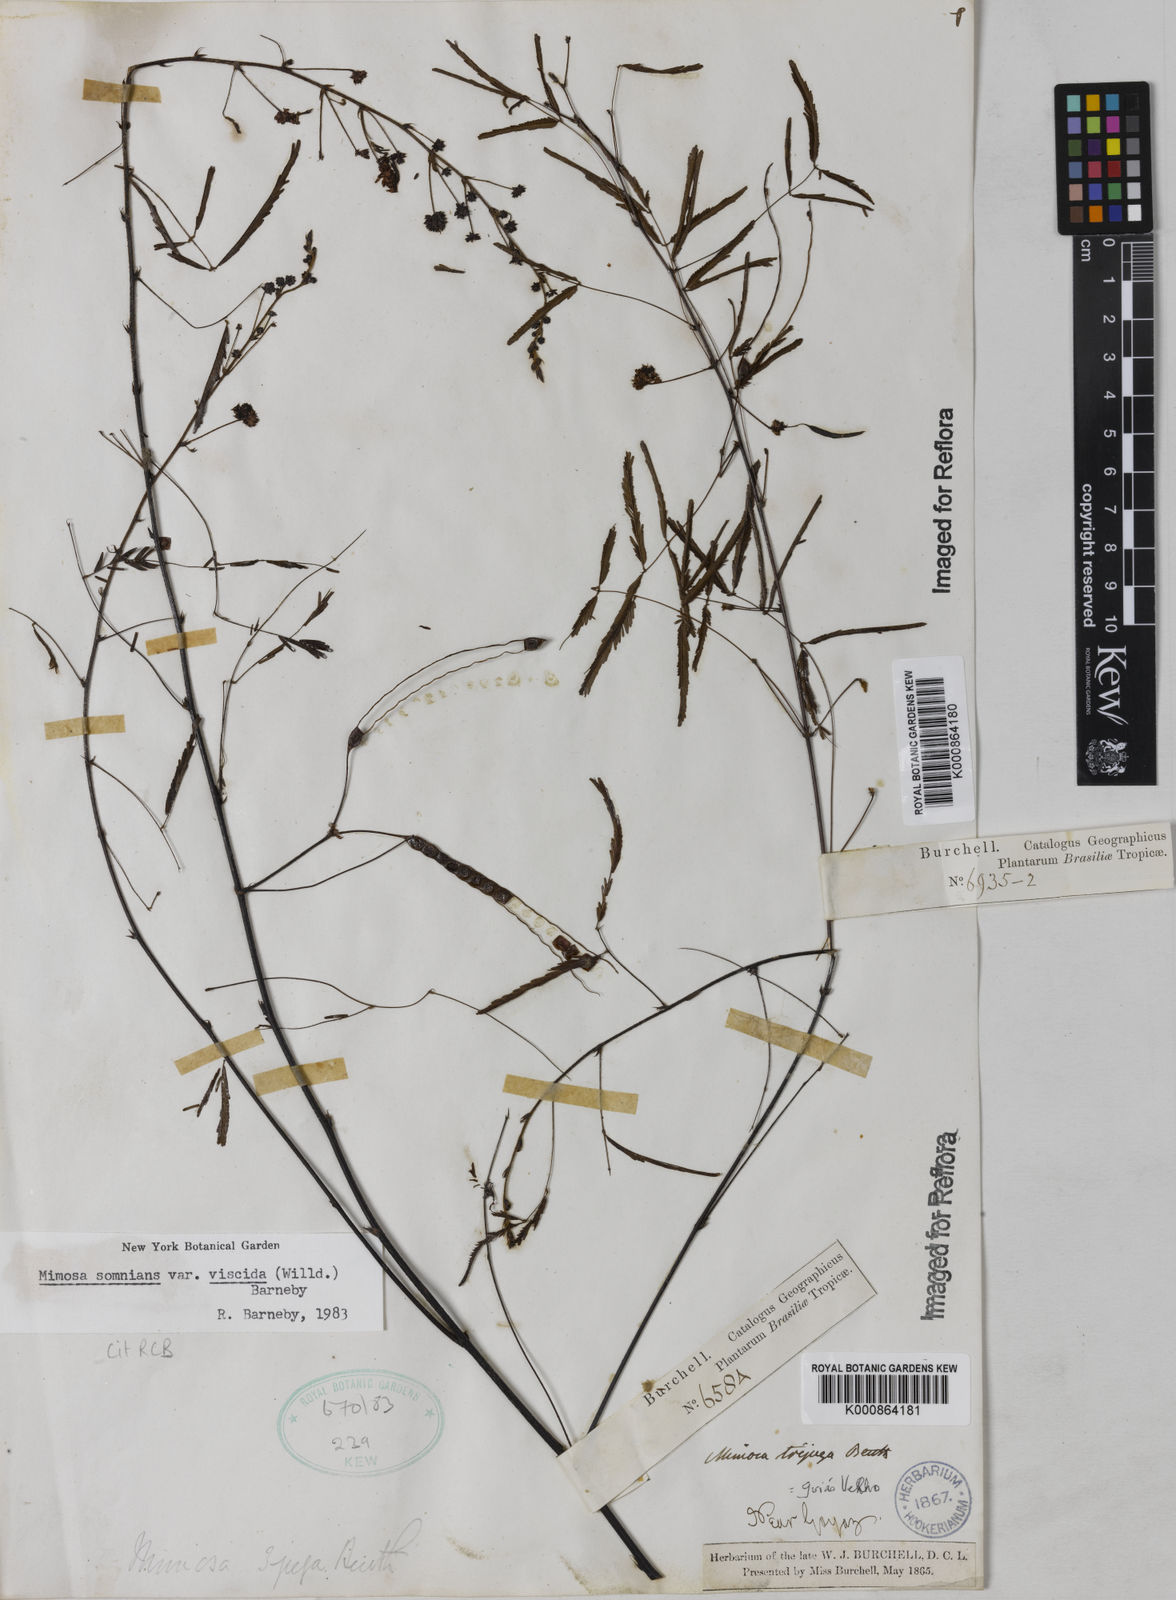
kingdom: Plantae
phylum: Tracheophyta
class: Magnoliopsida
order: Fabales
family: Fabaceae
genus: Mimosa
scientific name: Mimosa somnians
